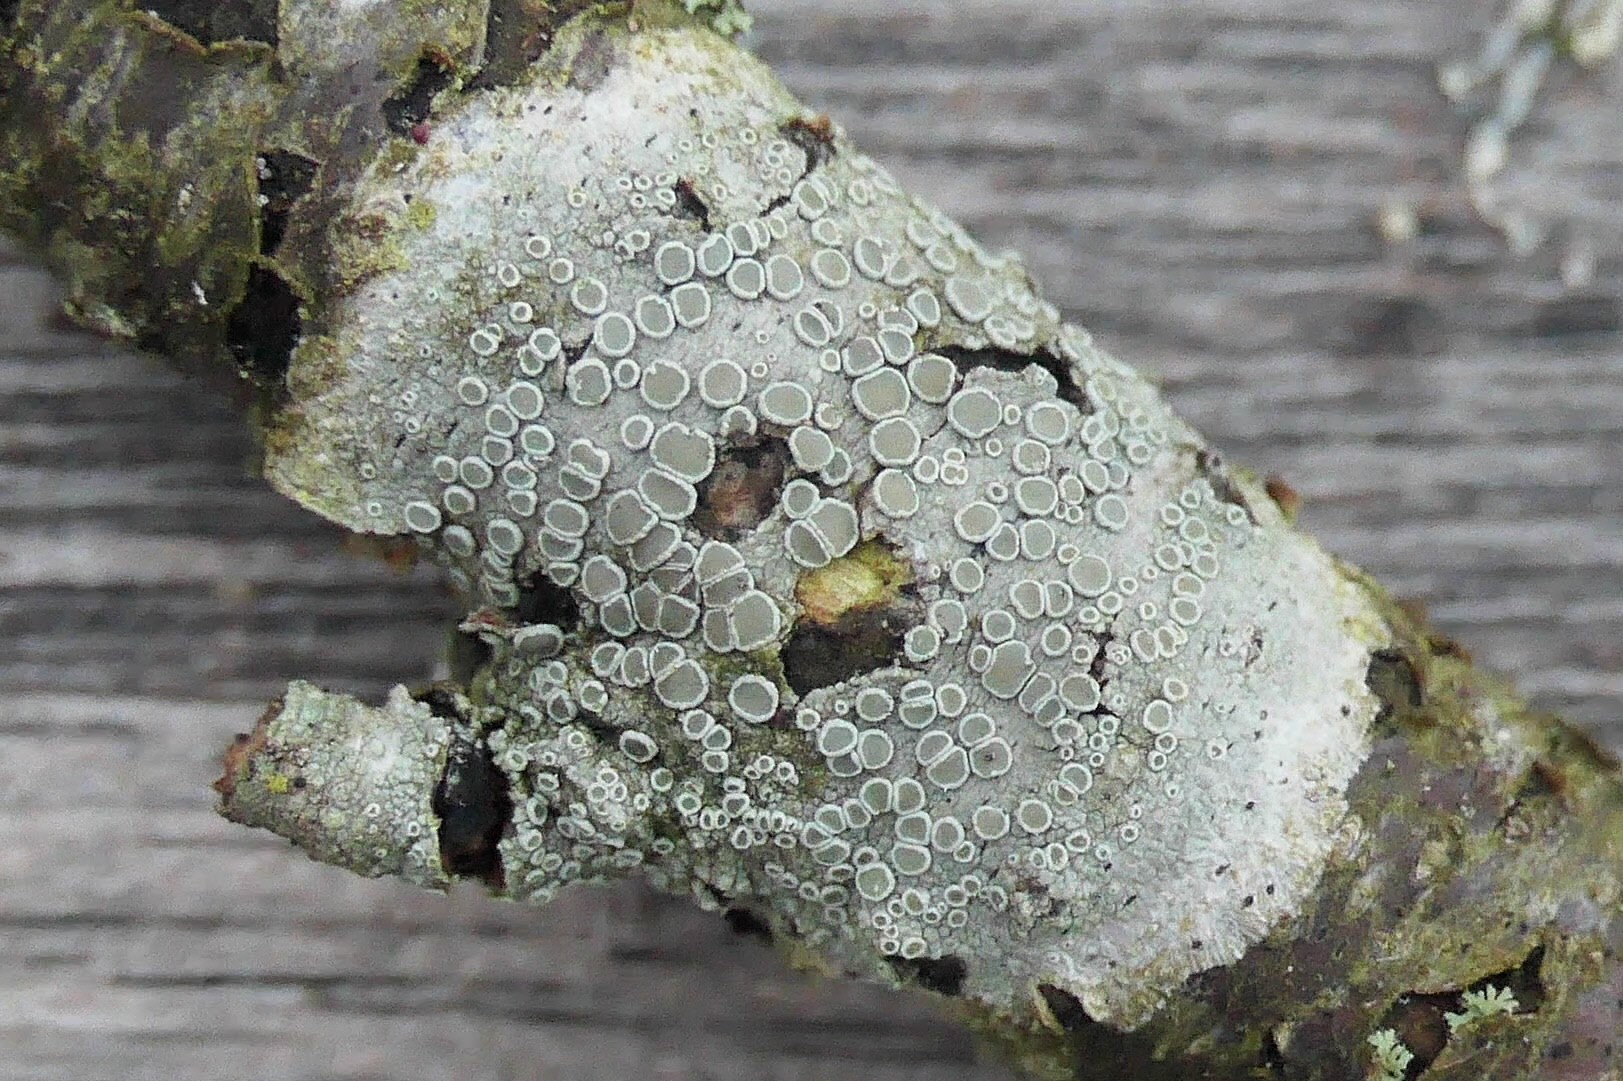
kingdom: Fungi
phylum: Ascomycota
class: Lecanoromycetes
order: Lecanorales
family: Lecanoraceae
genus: Lecanora
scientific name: Lecanora chlarotera
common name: brun kantskivelav
